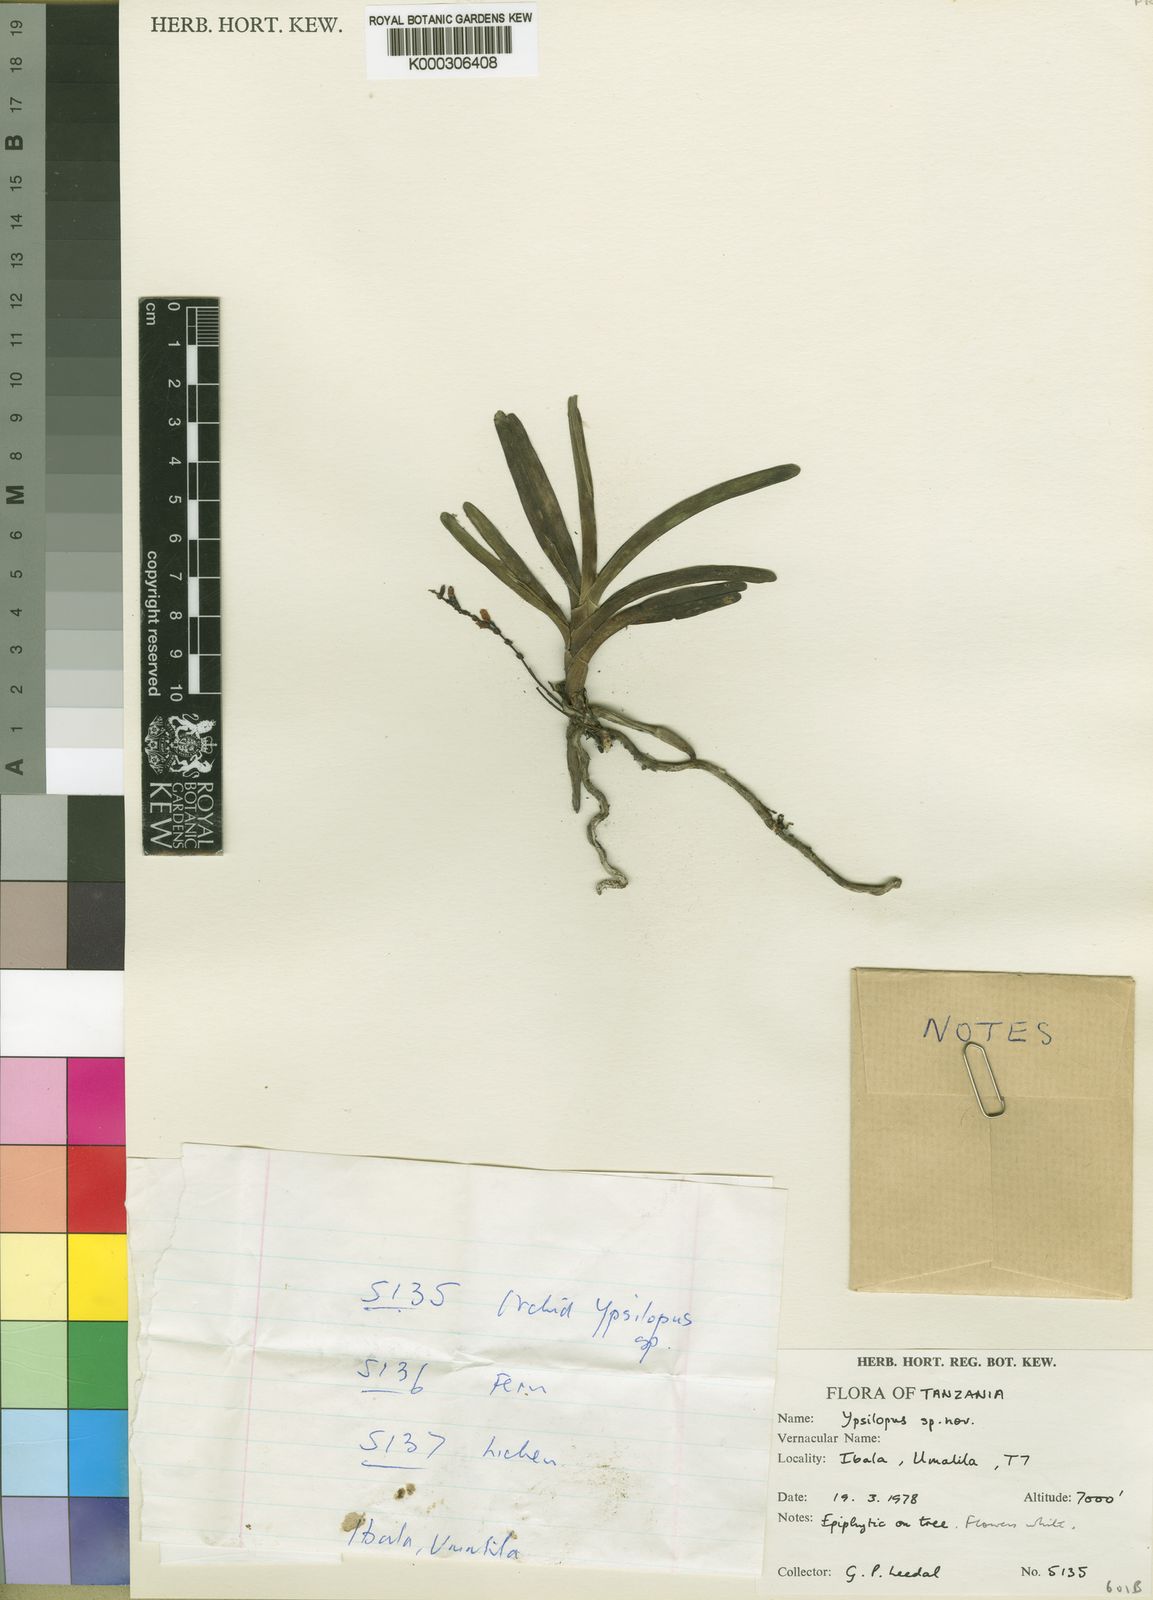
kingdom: Plantae
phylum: Tracheophyta
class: Liliopsida
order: Asparagales
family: Orchidaceae
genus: Ypsilopus
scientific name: Ypsilopus leedalii
